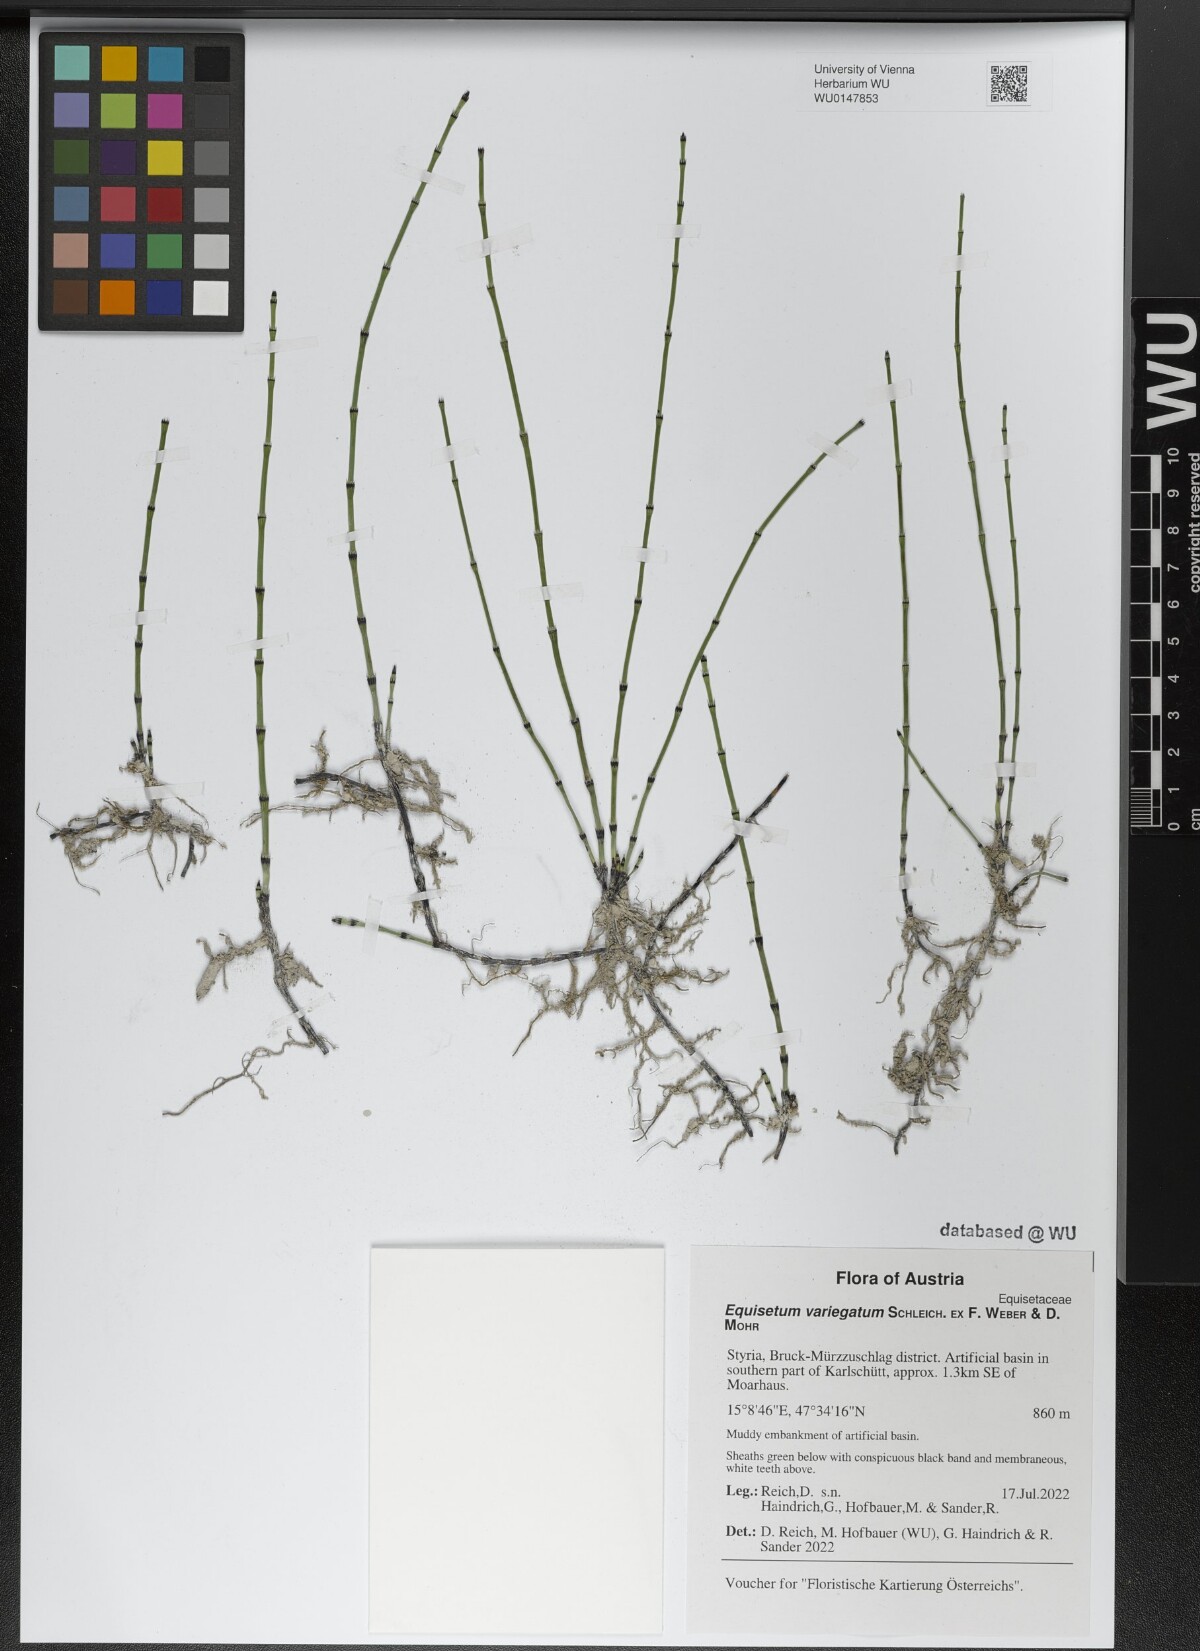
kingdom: Plantae
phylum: Tracheophyta
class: Polypodiopsida
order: Equisetales
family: Equisetaceae
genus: Equisetum
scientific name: Equisetum variegatum
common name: Variegated horsetail
